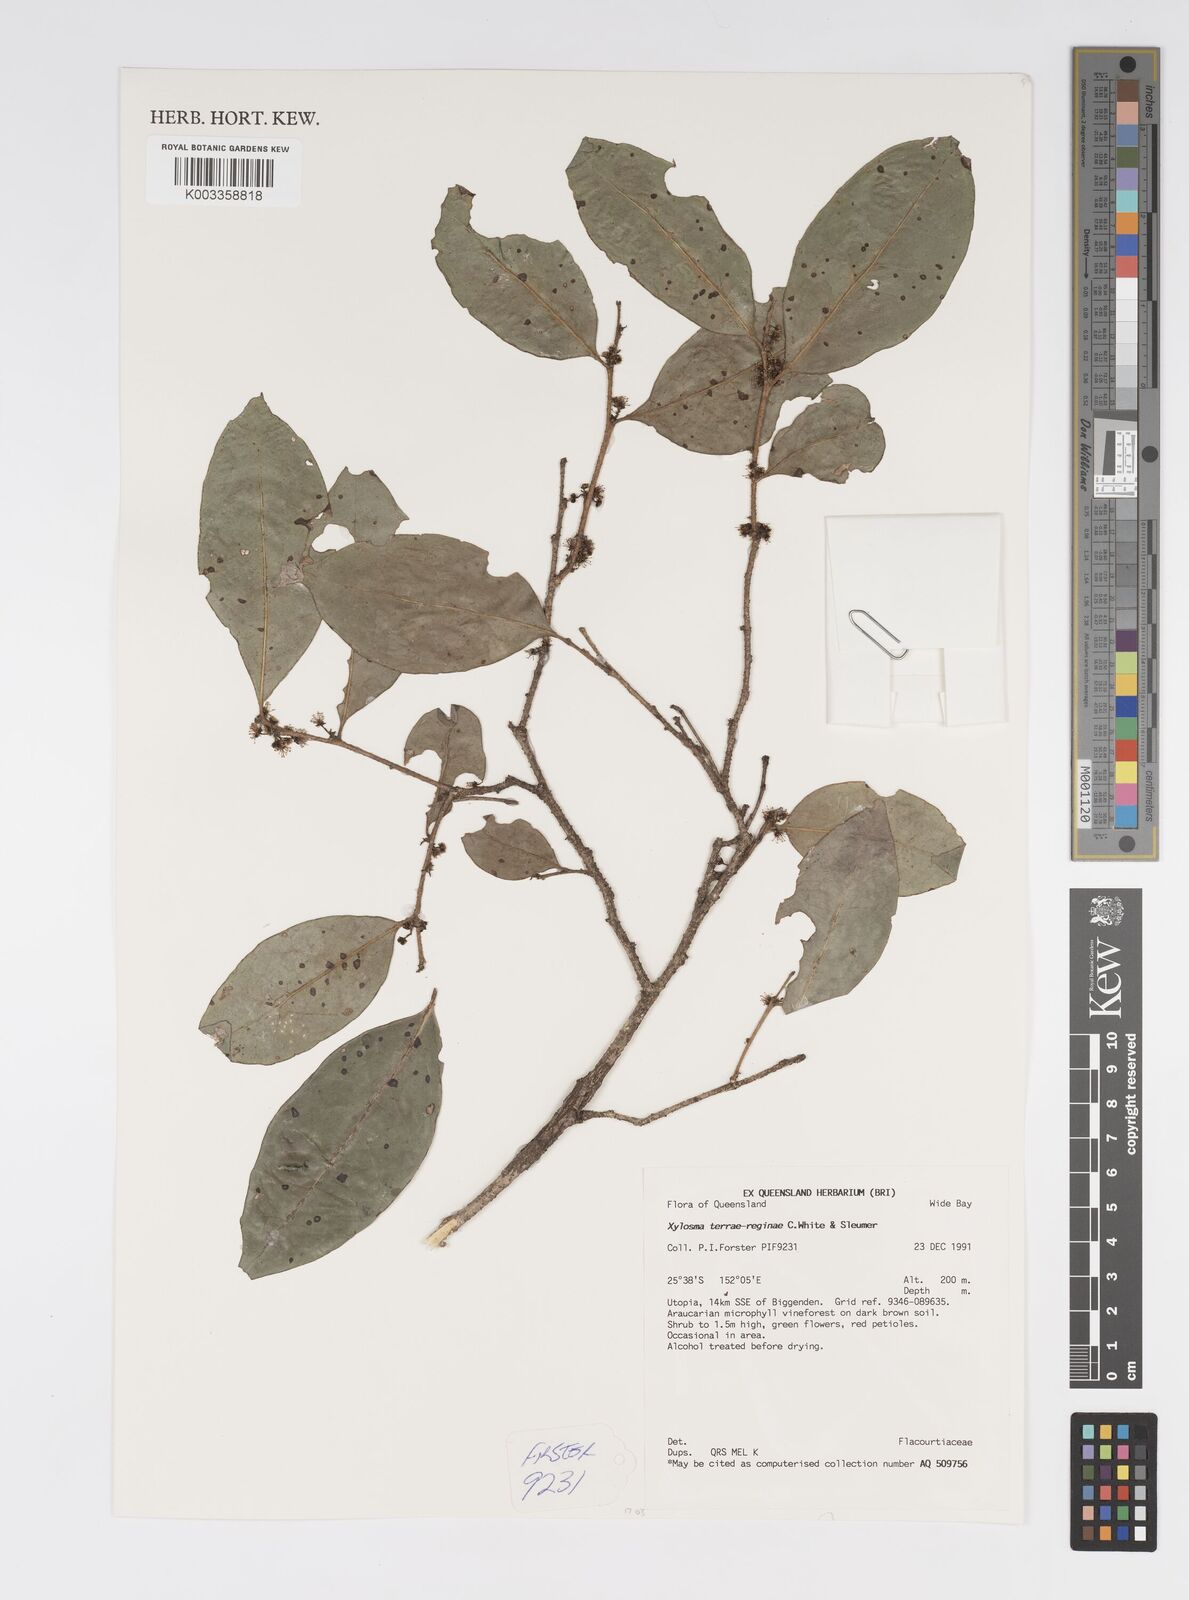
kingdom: Plantae
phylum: Tracheophyta
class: Magnoliopsida
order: Malpighiales
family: Salicaceae
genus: Xylosma
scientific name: Xylosma terrae-reginae
